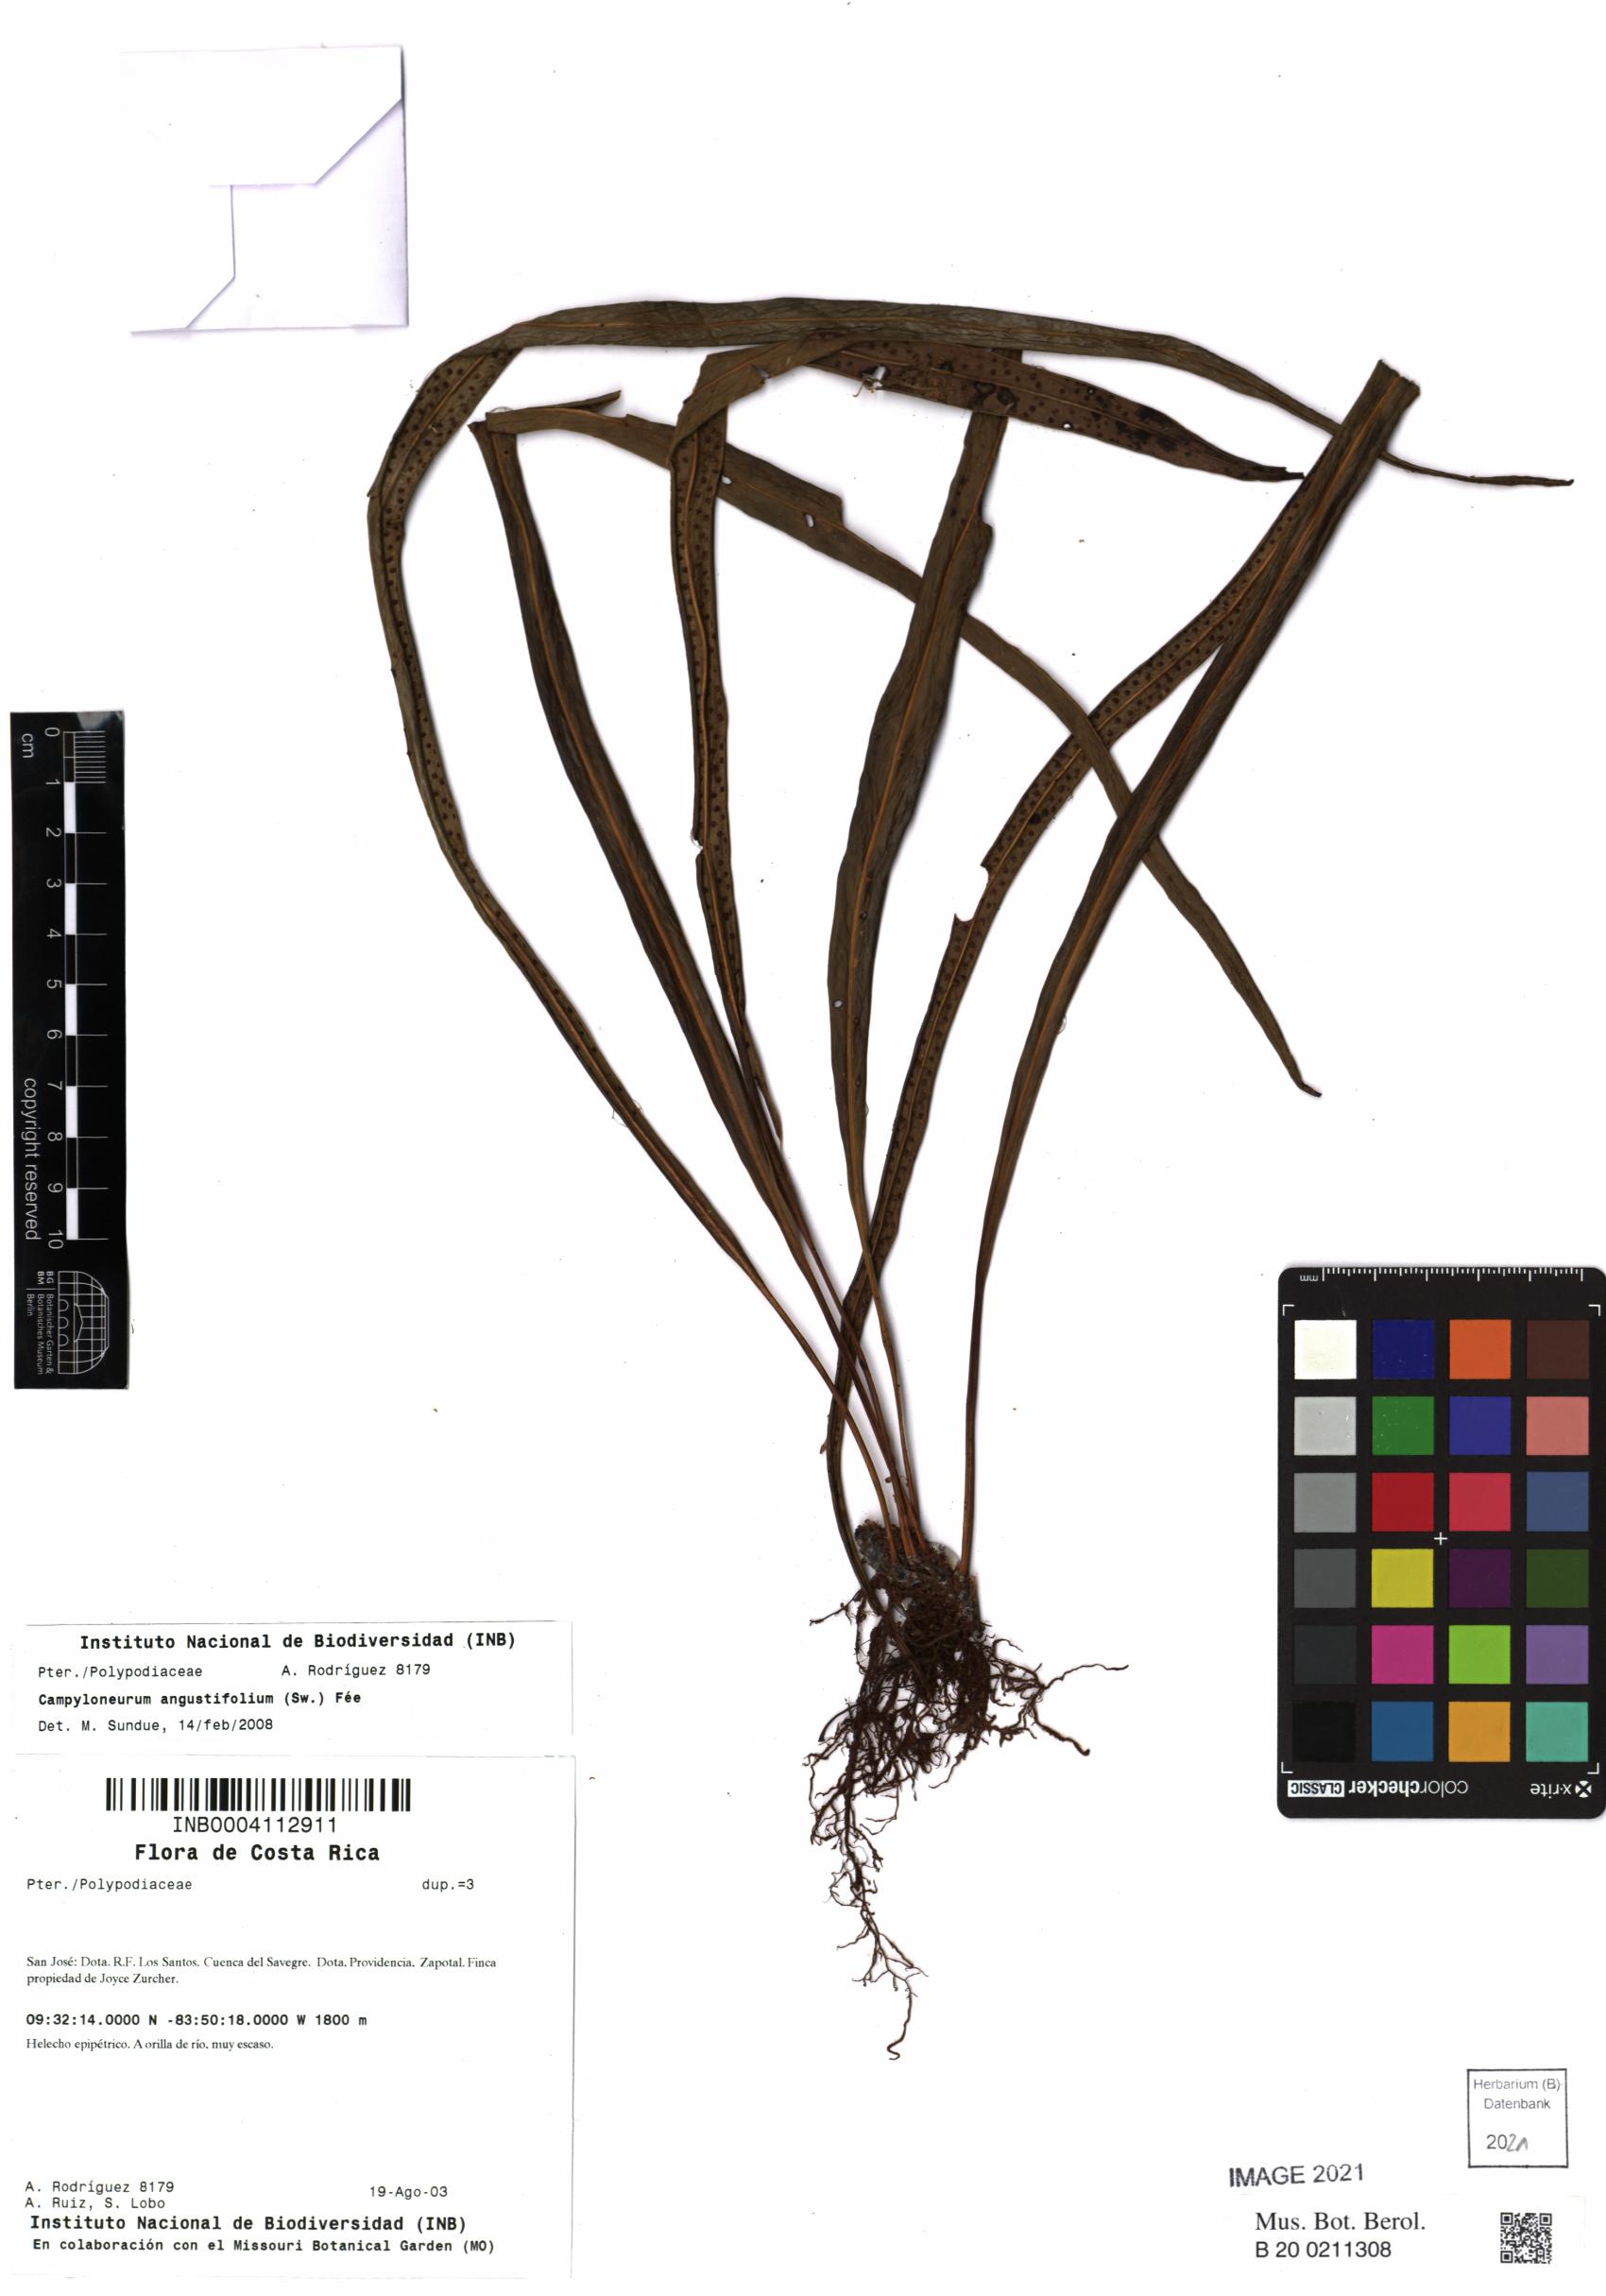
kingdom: Plantae
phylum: Tracheophyta
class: Polypodiopsida
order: Polypodiales
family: Polypodiaceae
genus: Campyloneurum
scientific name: Campyloneurum angustifolium
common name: Narrow-leaf strap fern
